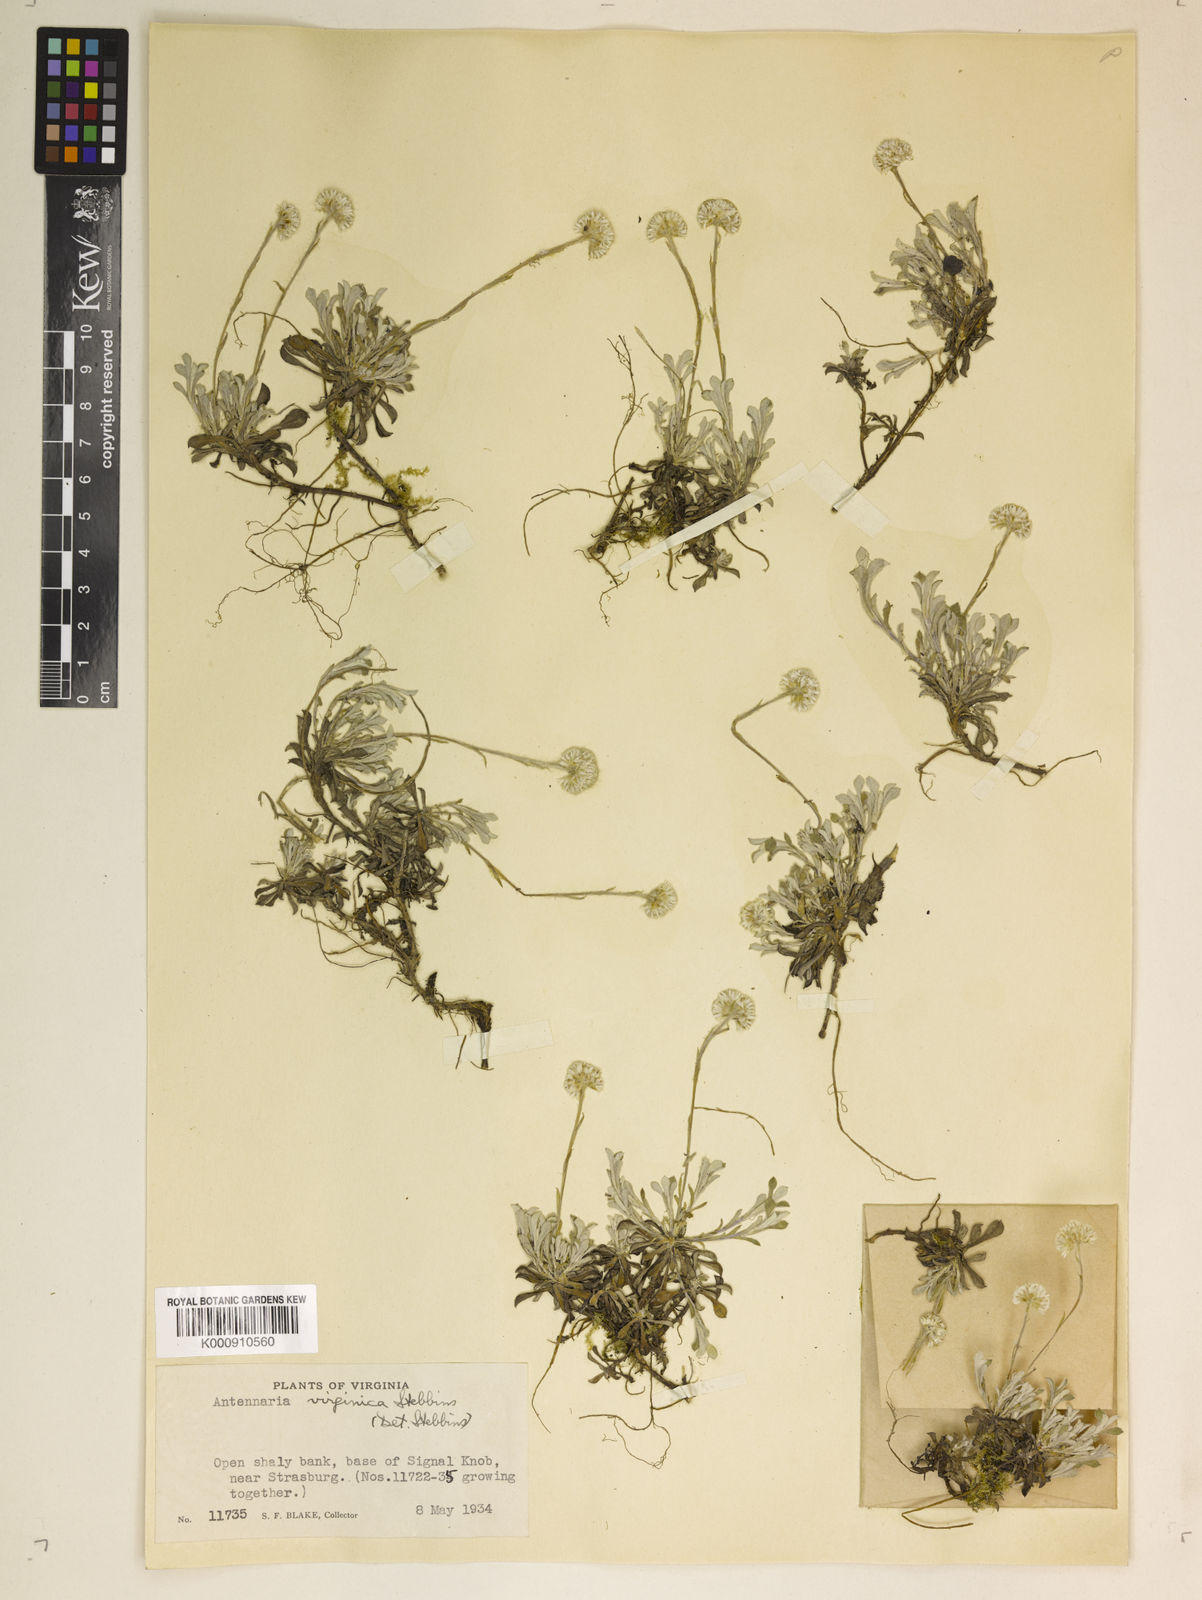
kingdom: Plantae
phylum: Tracheophyta
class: Magnoliopsida
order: Asterales
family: Asteraceae
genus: Antennaria
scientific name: Antennaria virginica
